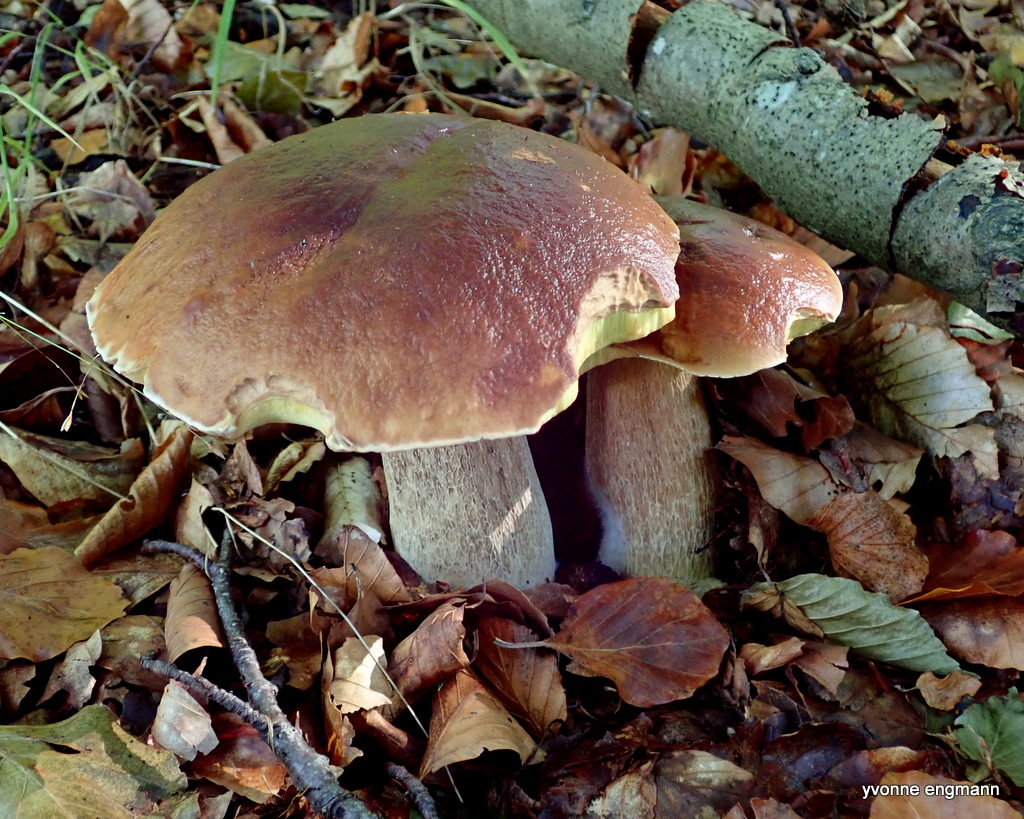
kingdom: Fungi
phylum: Basidiomycota
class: Agaricomycetes
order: Boletales
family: Boletaceae
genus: Boletus
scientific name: Boletus edulis
